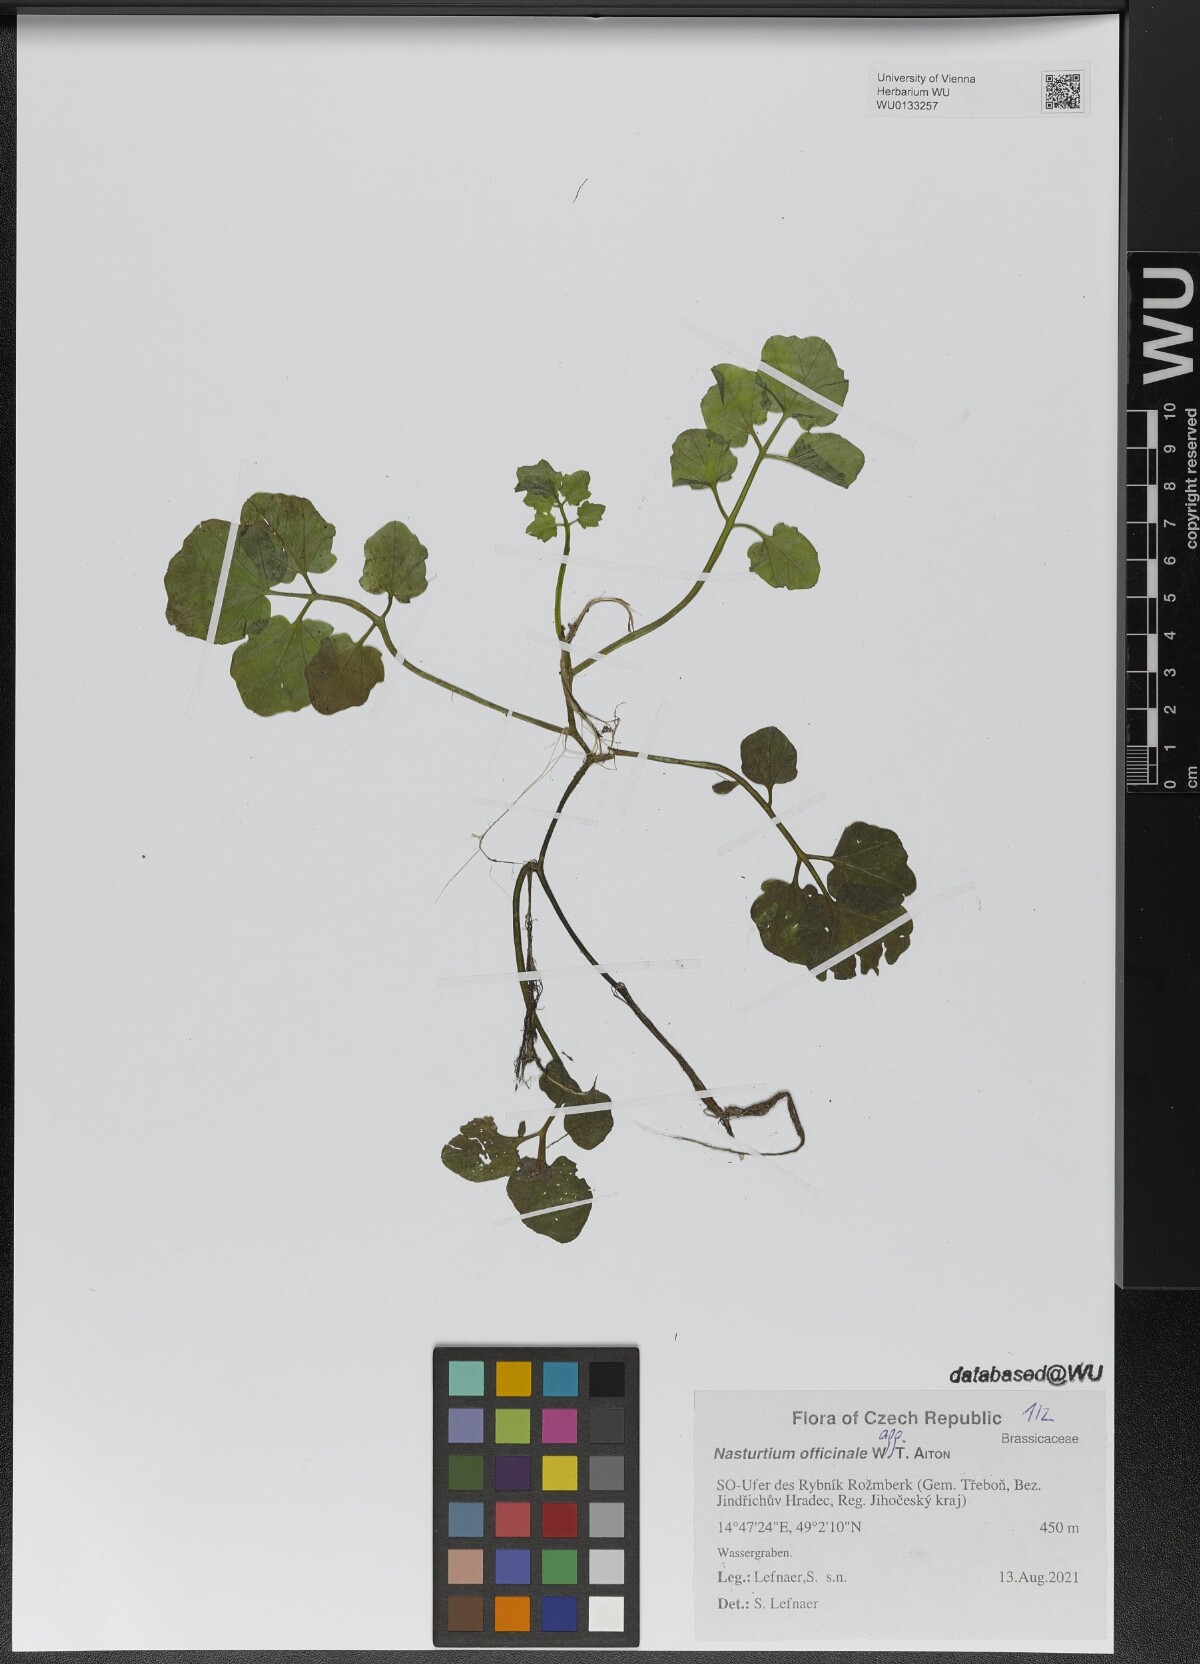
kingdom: Plantae
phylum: Tracheophyta
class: Magnoliopsida
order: Brassicales
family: Brassicaceae
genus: Nasturtium
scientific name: Nasturtium officinale
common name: Watercress
